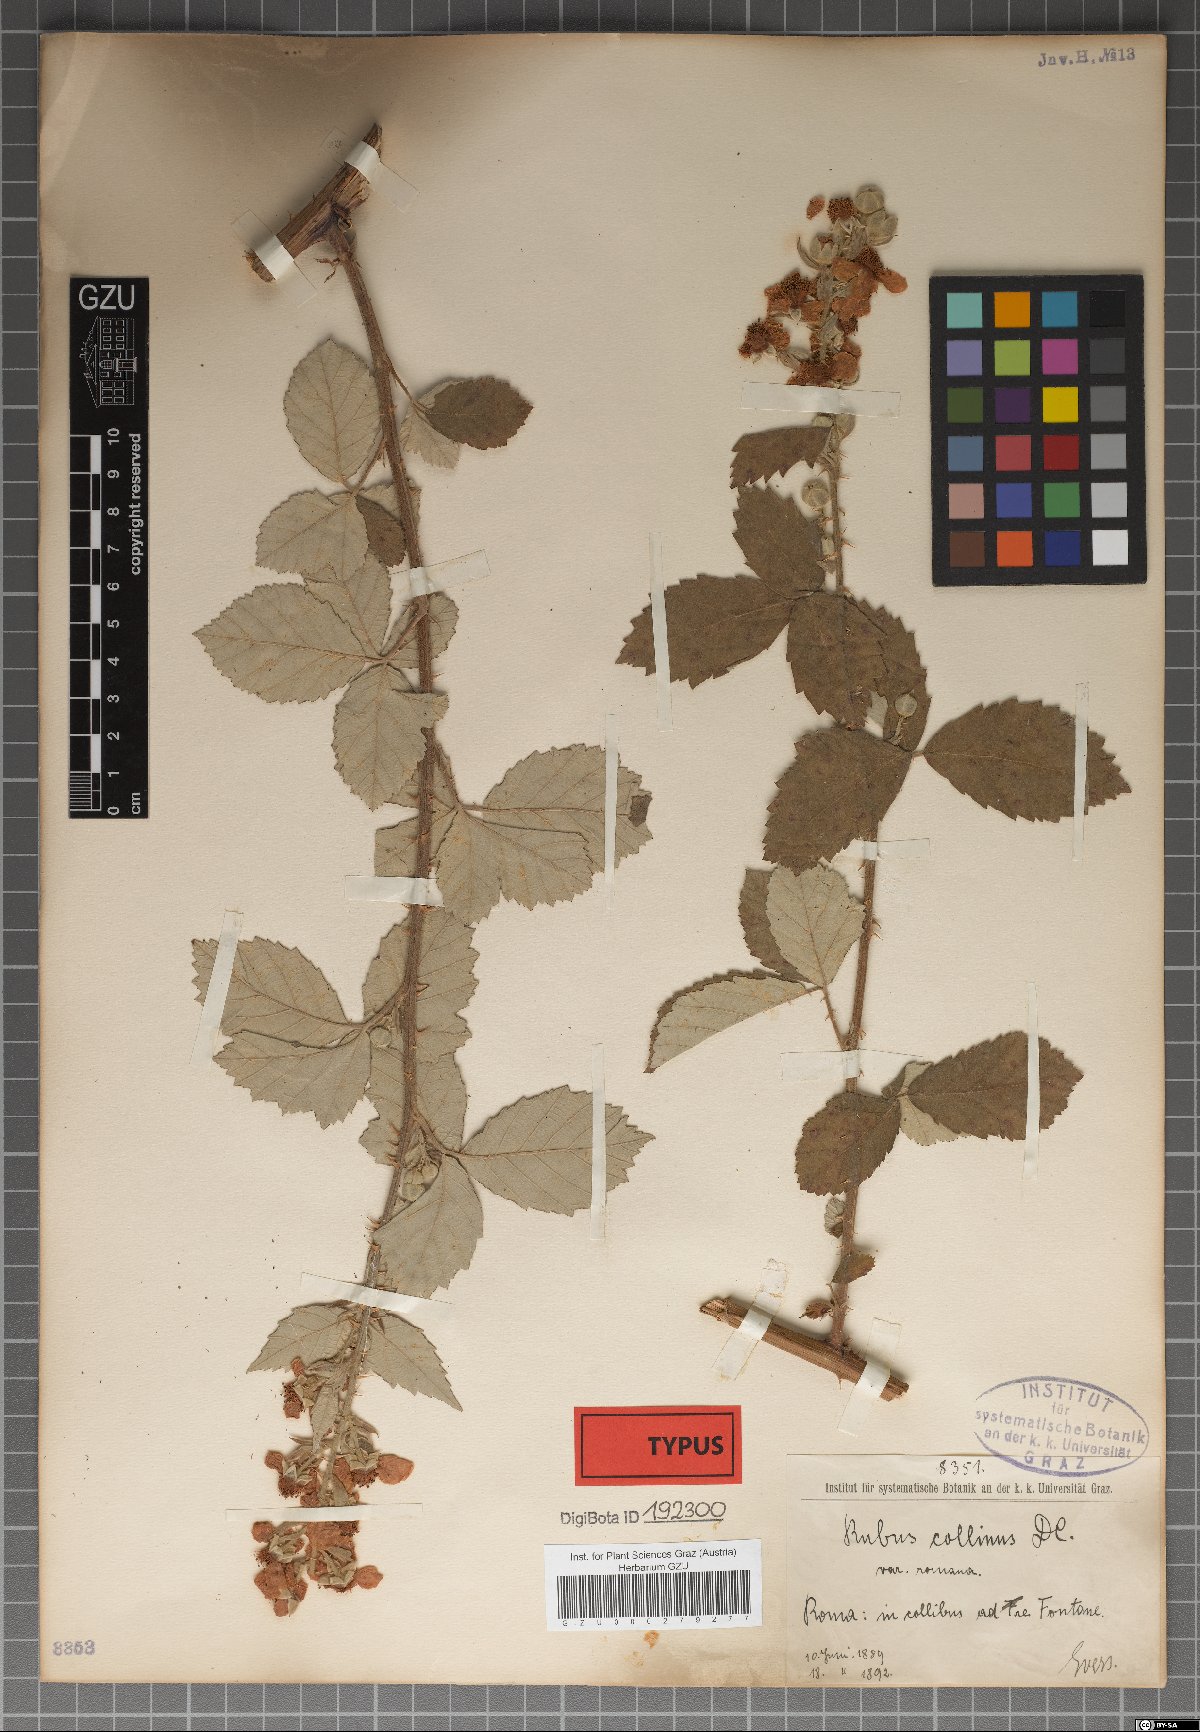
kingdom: Plantae
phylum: Tracheophyta
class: Magnoliopsida
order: Rosales
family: Rosaceae
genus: Rubus
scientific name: Rubus collinus
